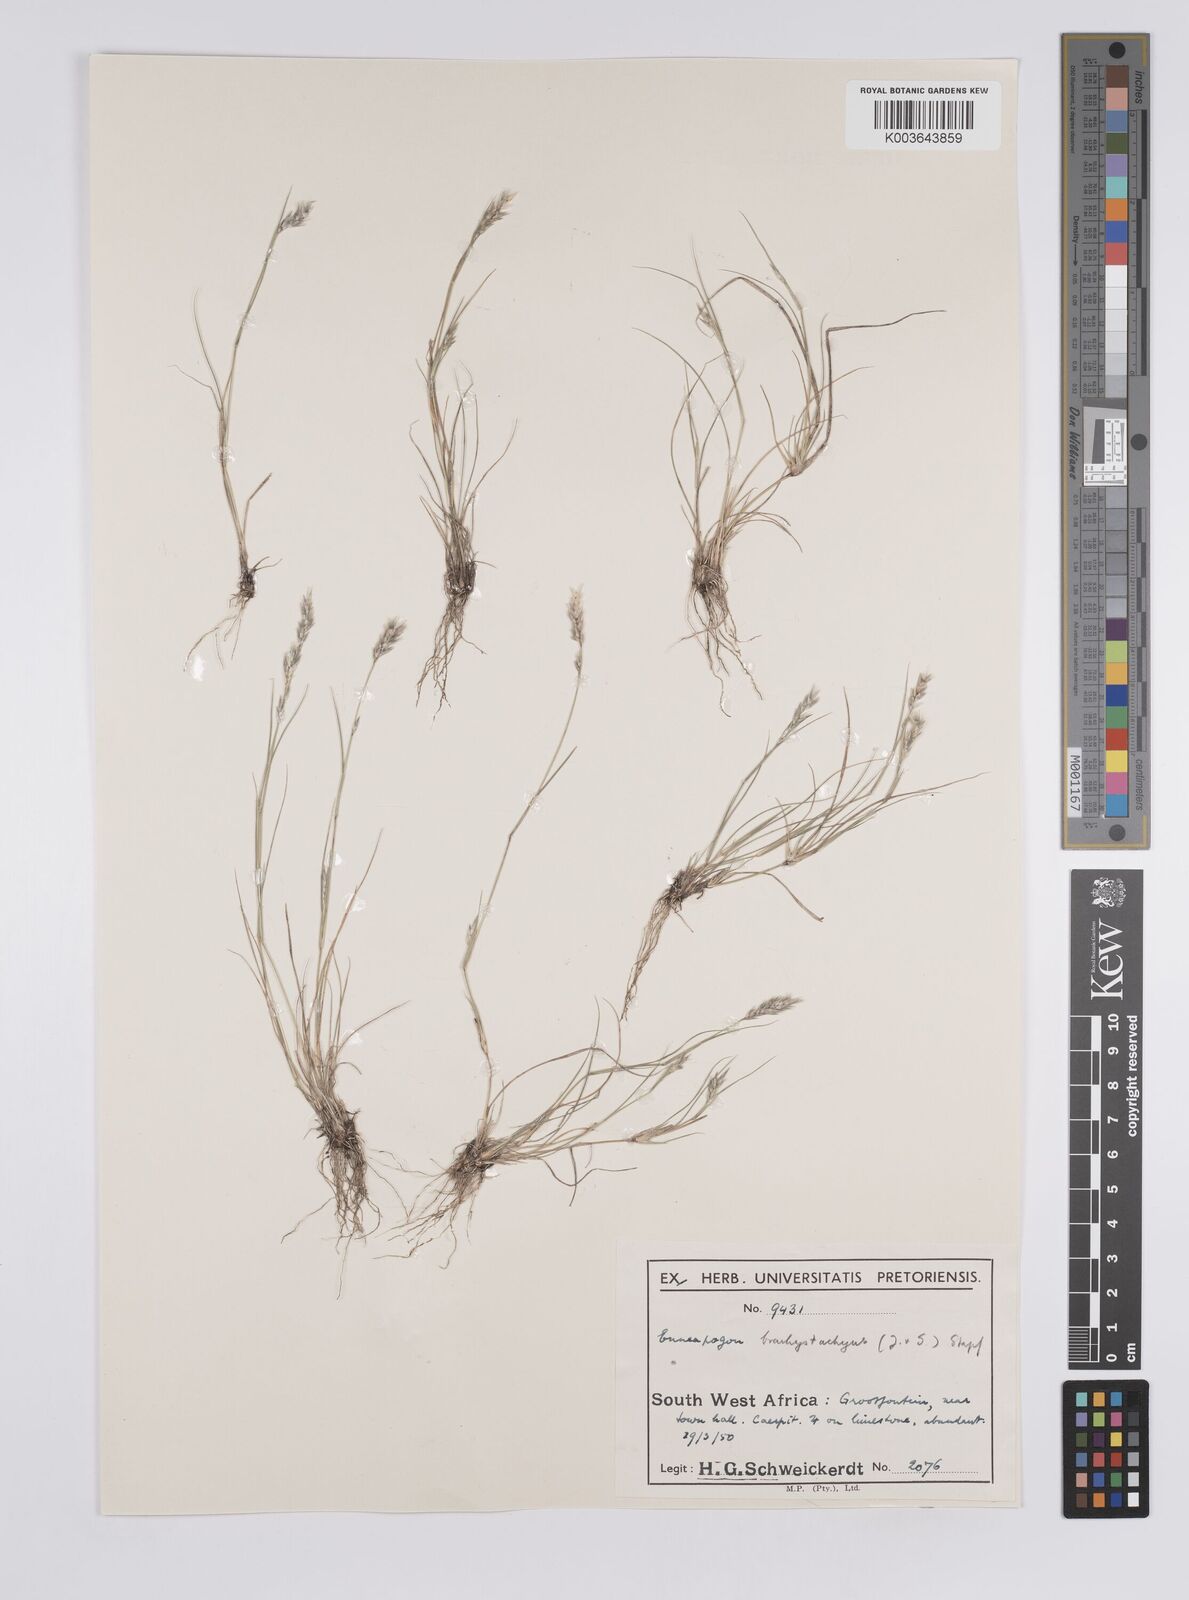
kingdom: Plantae
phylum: Tracheophyta
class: Liliopsida
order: Poales
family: Poaceae
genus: Enneapogon
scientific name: Enneapogon desvauxii
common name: Feather pappus grass
